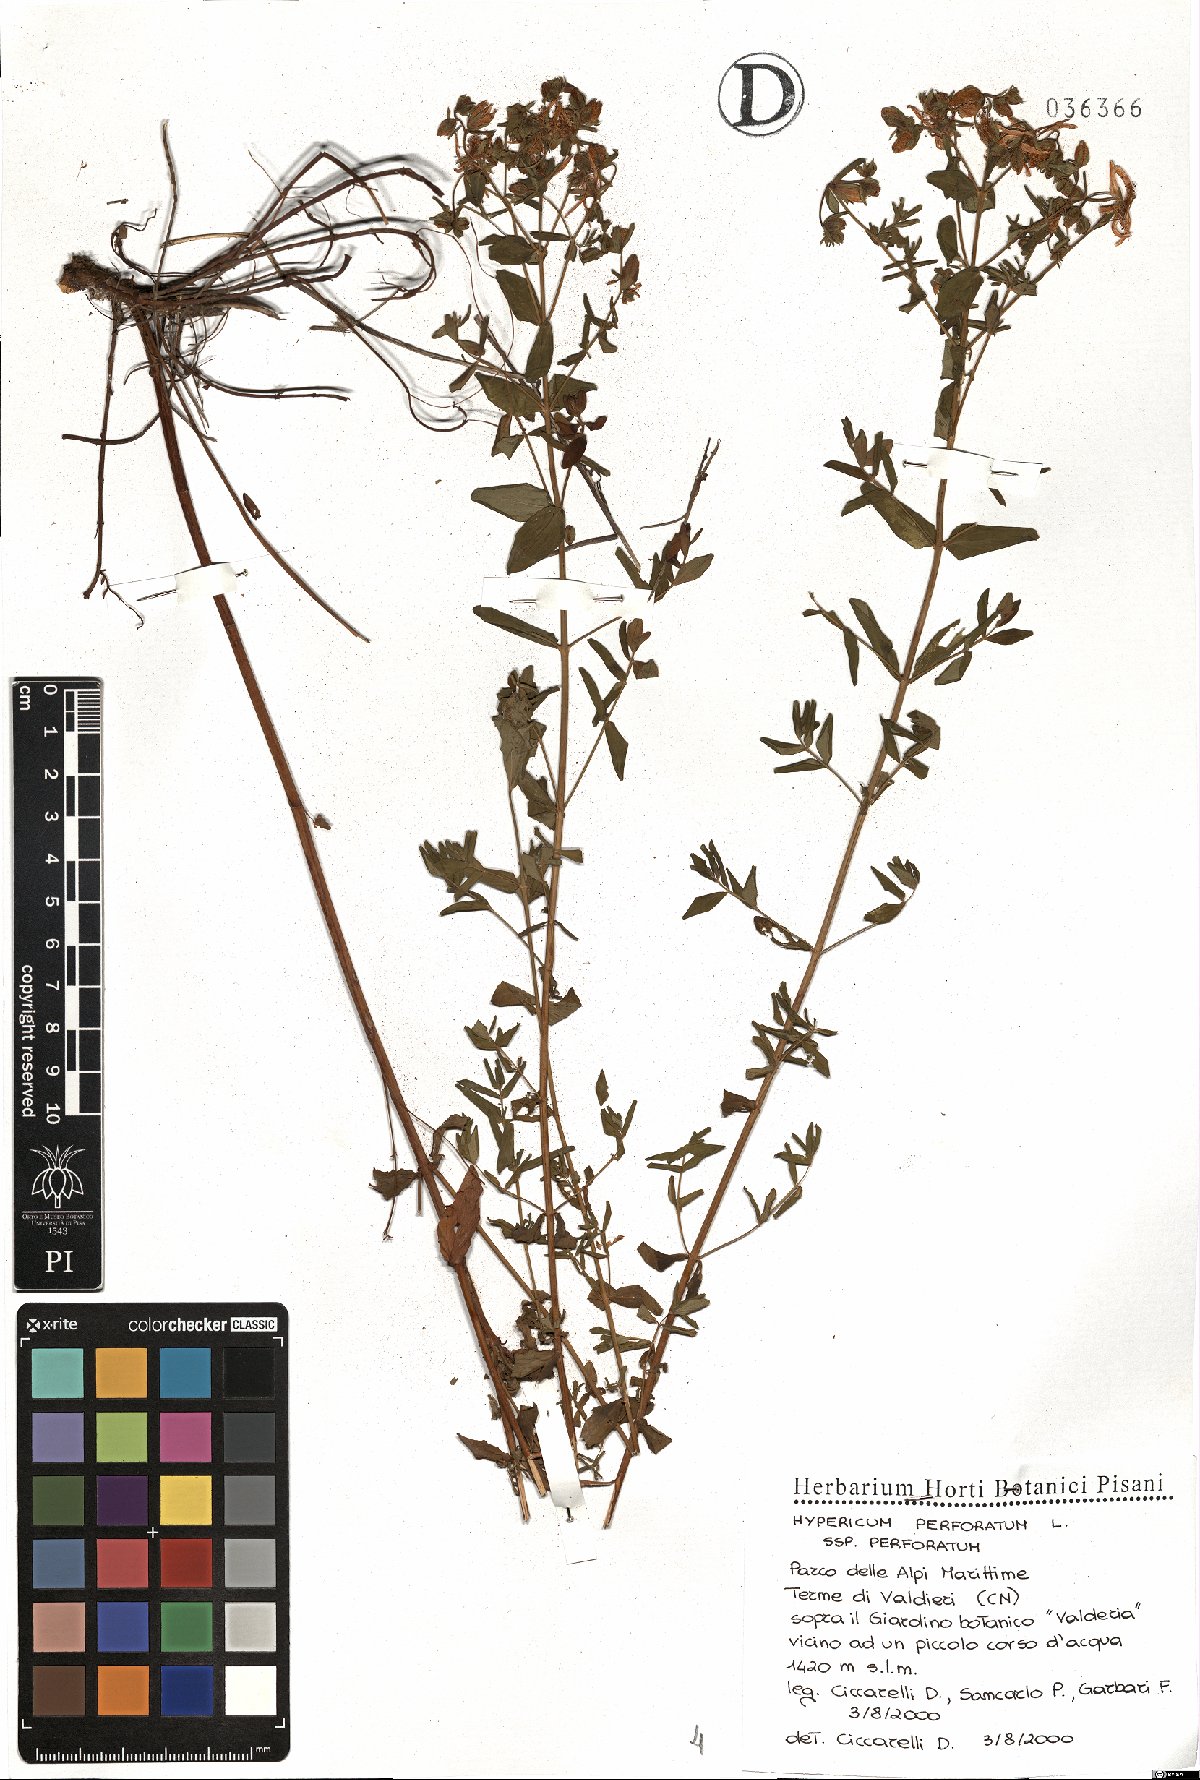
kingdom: Plantae
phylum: Tracheophyta
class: Magnoliopsida
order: Malpighiales
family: Hypericaceae
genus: Hypericum
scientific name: Hypericum perforatum
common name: Common st. johnswort
